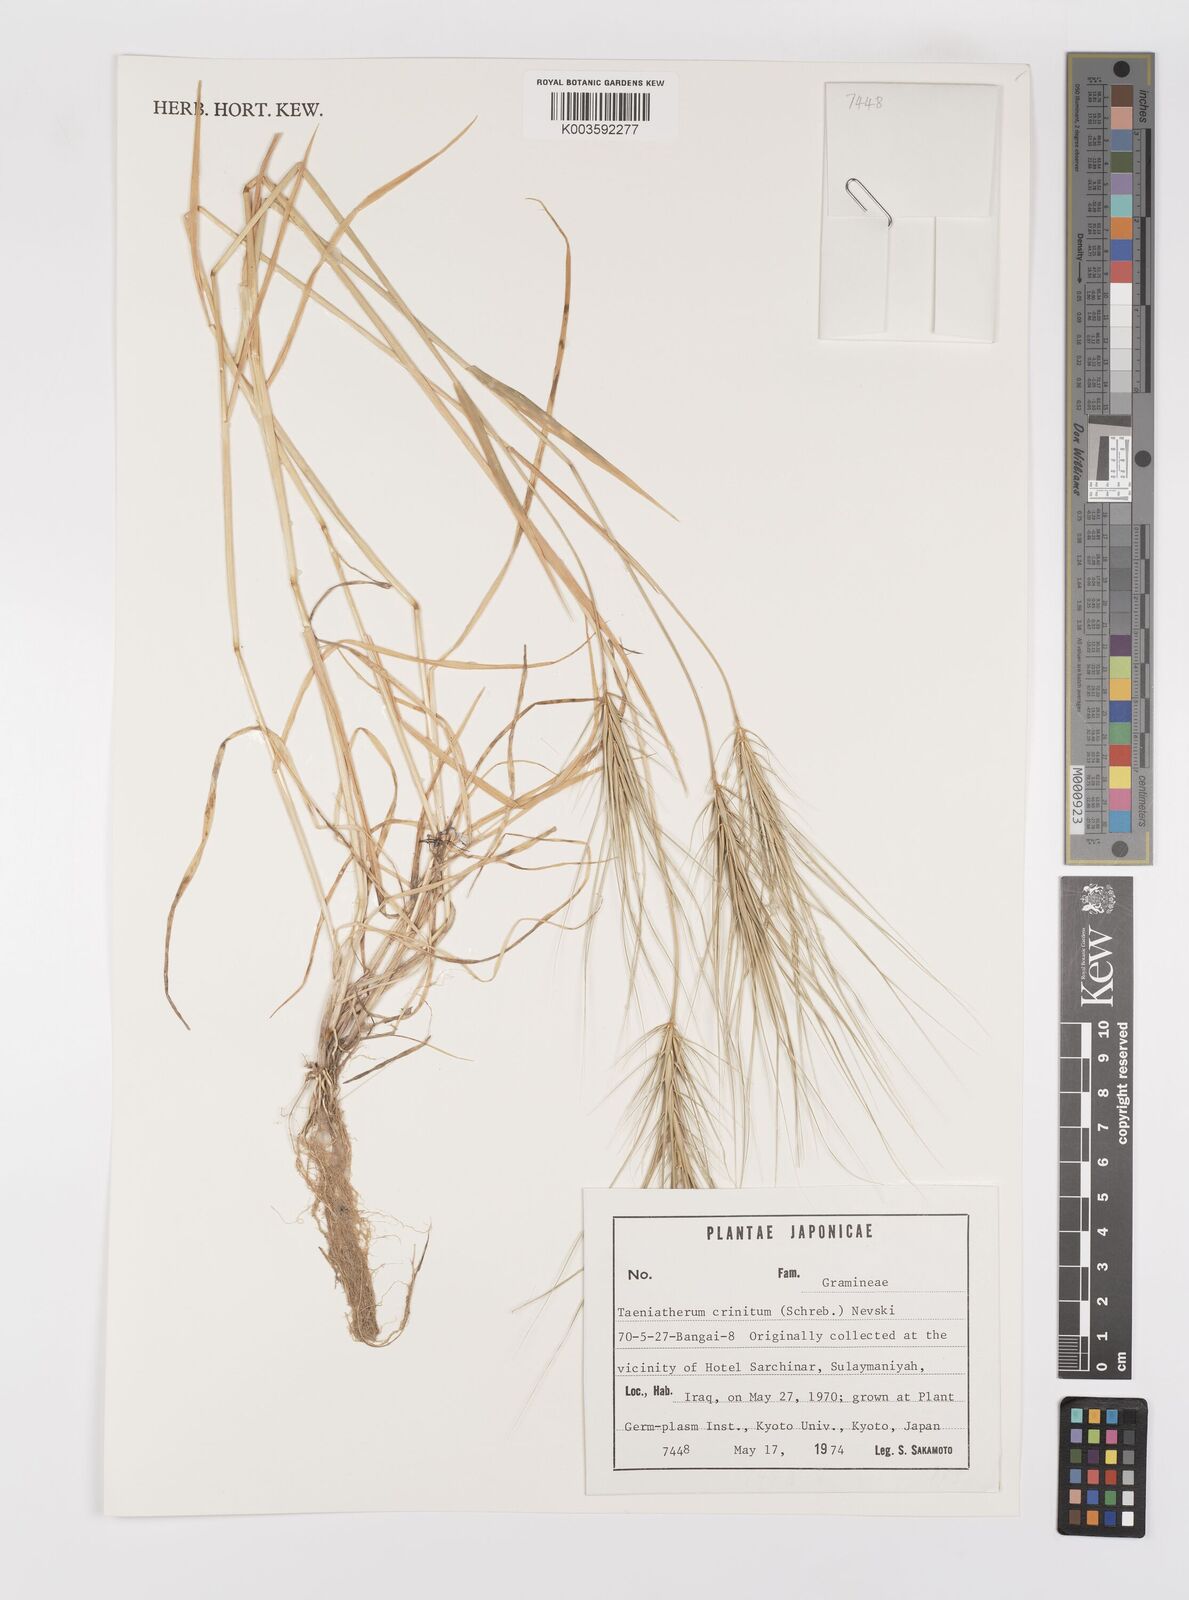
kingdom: Plantae
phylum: Tracheophyta
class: Liliopsida
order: Poales
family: Poaceae
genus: Taeniatherum
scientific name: Taeniatherum caput-medusae
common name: Medusahead
